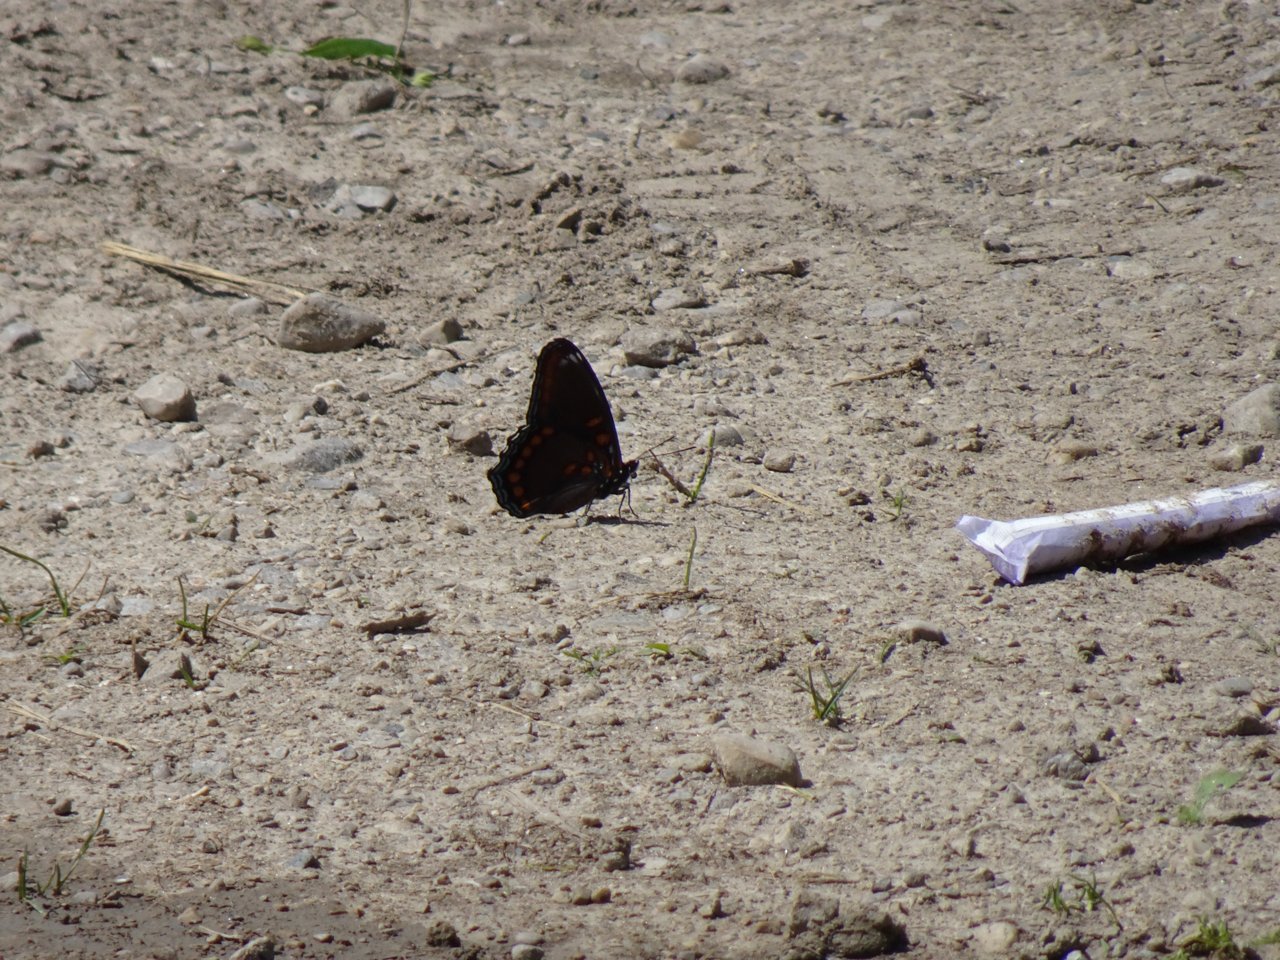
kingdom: Animalia
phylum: Arthropoda
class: Insecta
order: Lepidoptera
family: Nymphalidae
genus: Limenitis
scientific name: Limenitis astyanax
